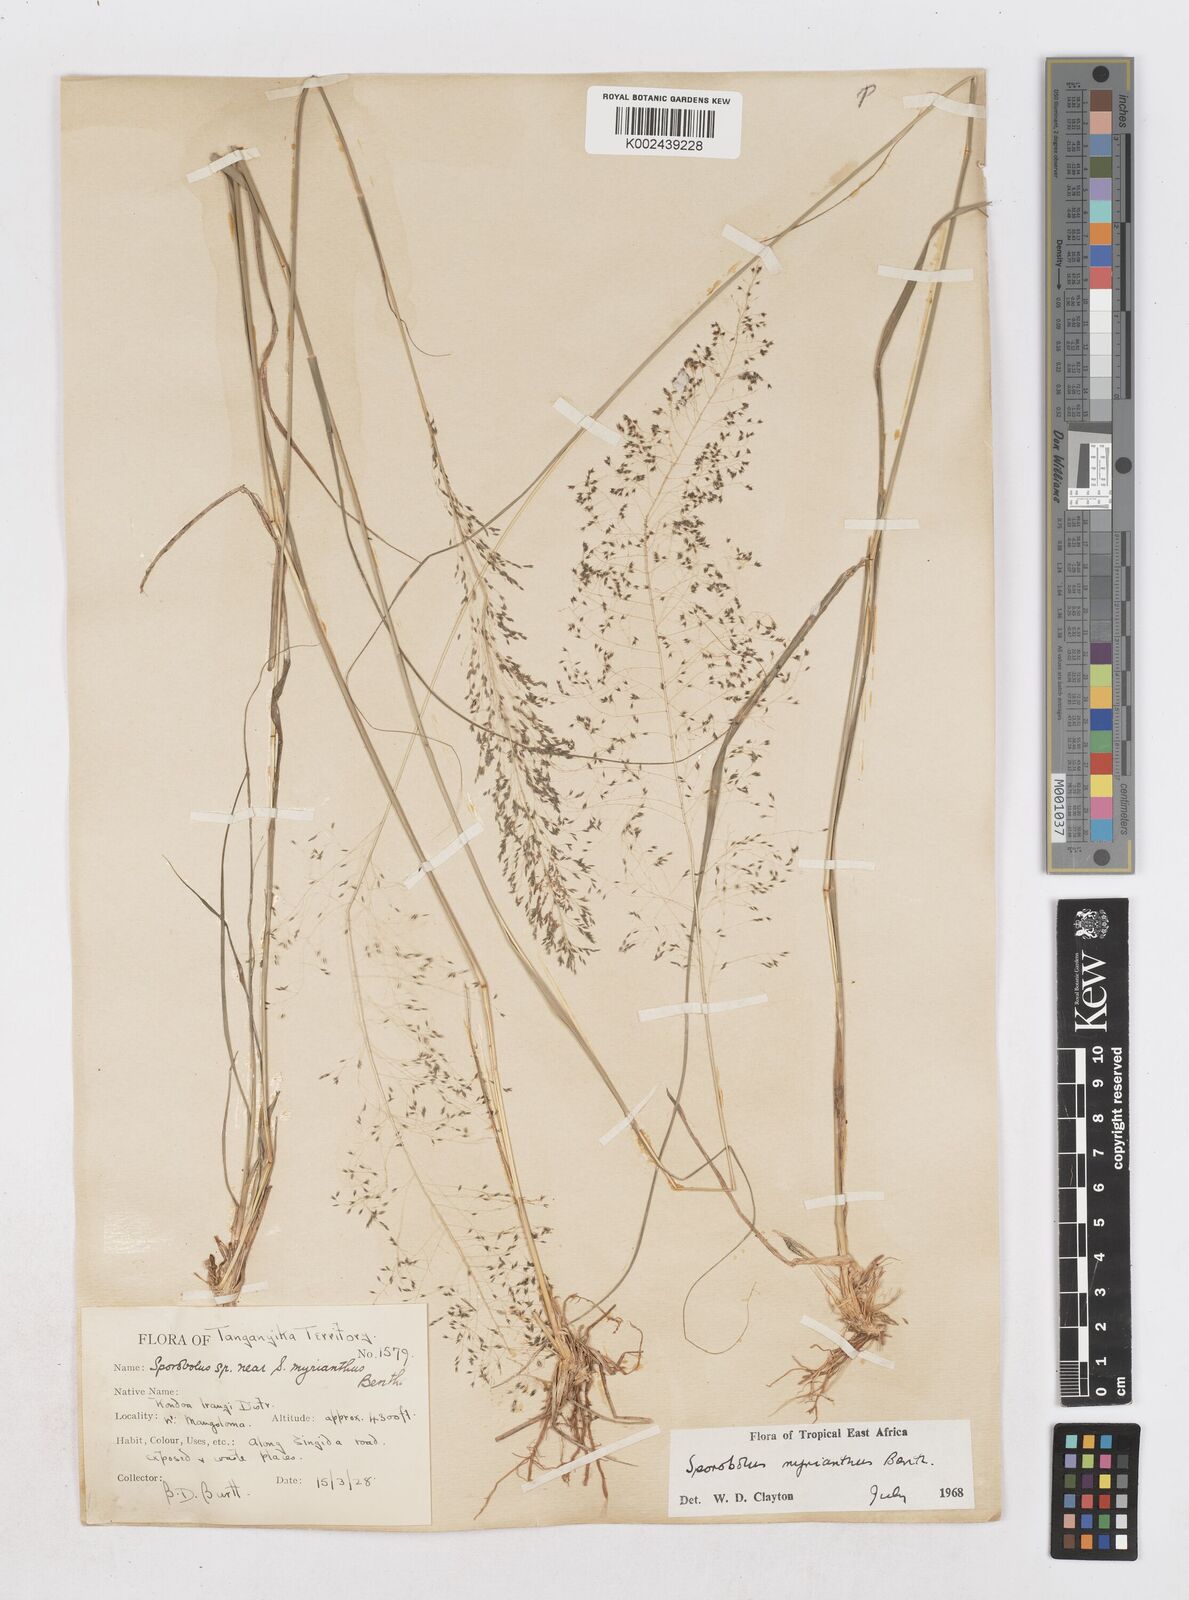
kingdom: Plantae
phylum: Tracheophyta
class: Liliopsida
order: Poales
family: Poaceae
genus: Sporobolus
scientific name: Sporobolus myrianthus
